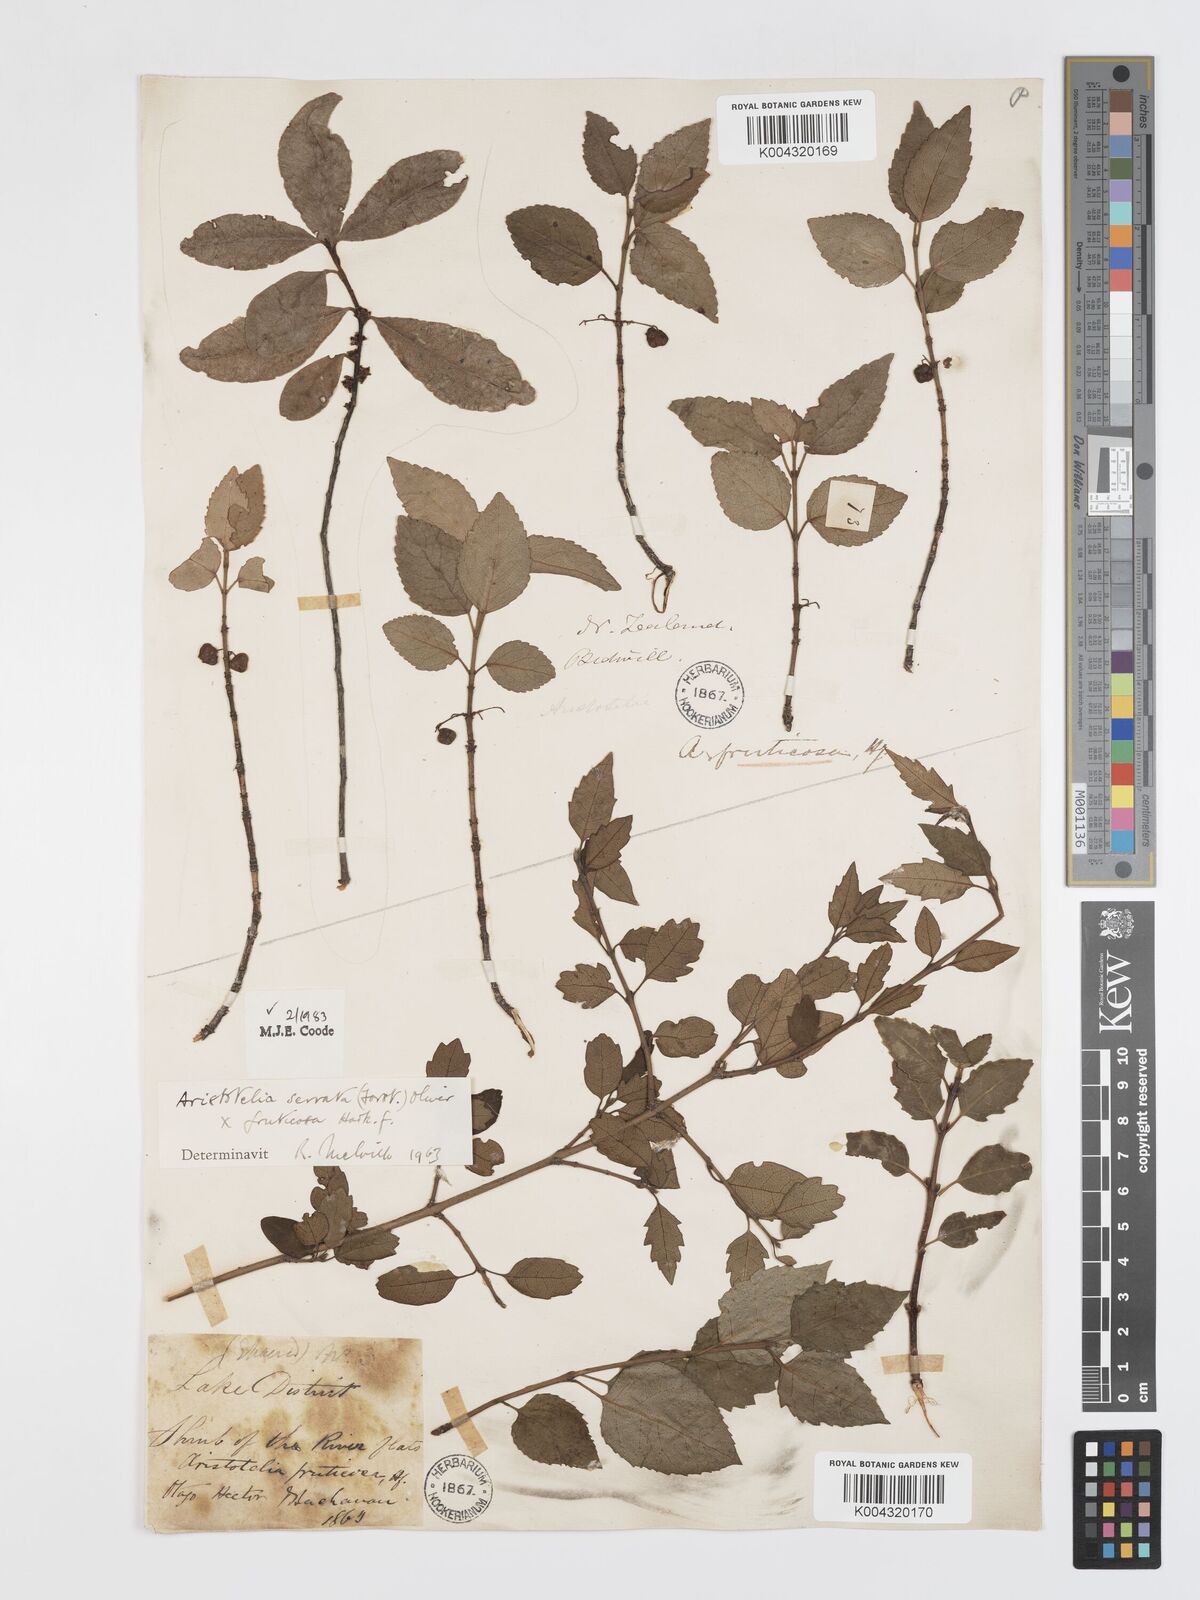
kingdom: Plantae
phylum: Tracheophyta
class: Magnoliopsida
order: Oxalidales
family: Elaeocarpaceae
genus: Aristotelia
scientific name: Aristotelia fruticosa
